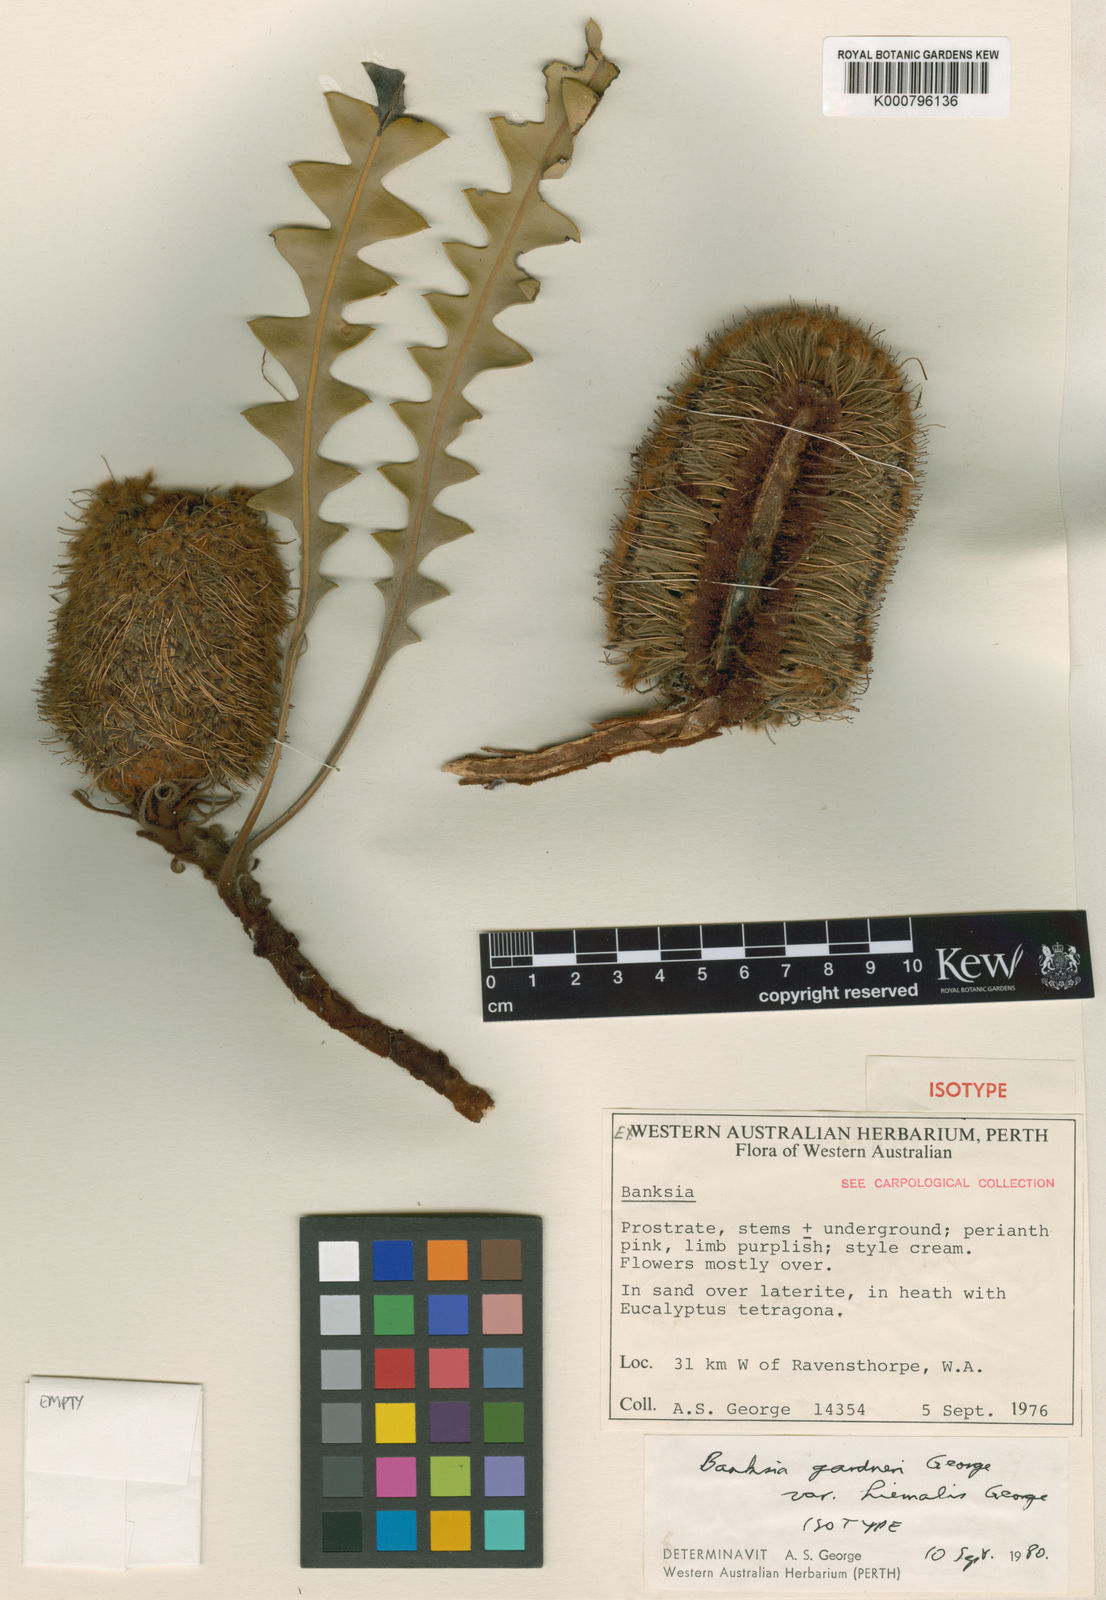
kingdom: Plantae
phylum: Tracheophyta
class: Magnoliopsida
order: Proteales
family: Proteaceae
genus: Banksia
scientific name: Banksia hiemalis
